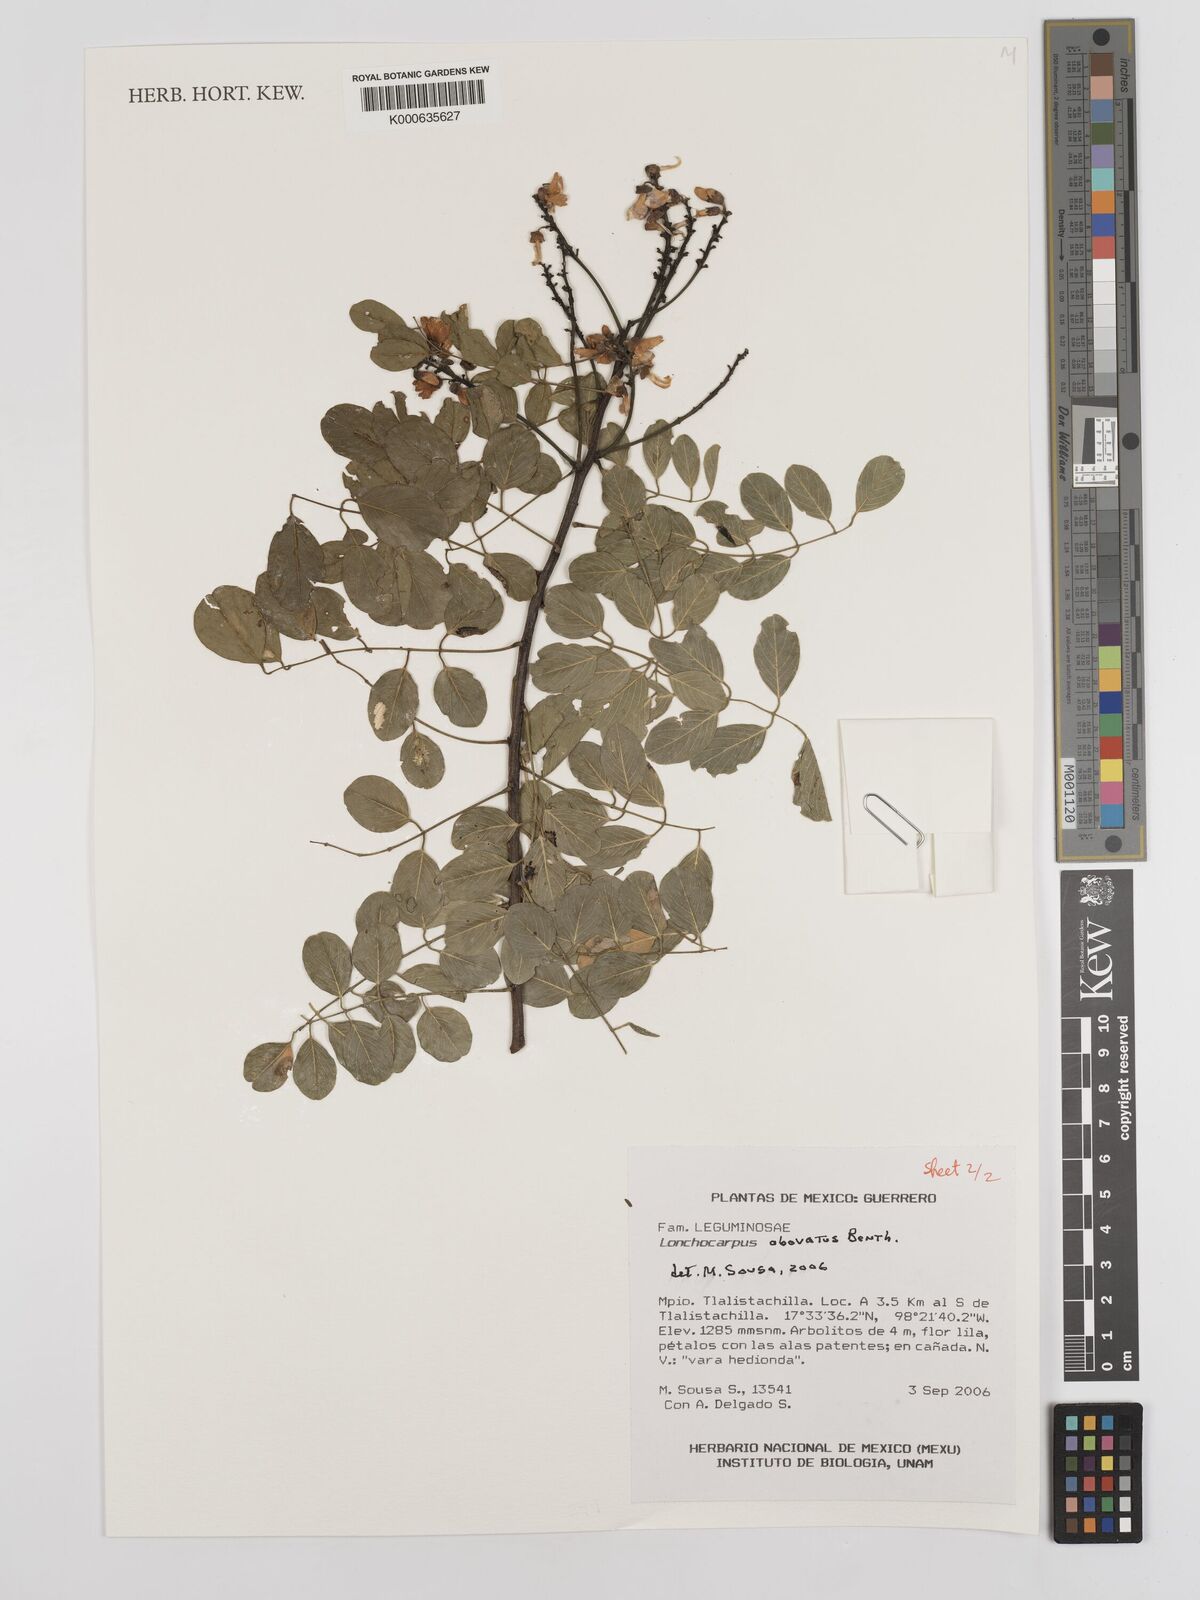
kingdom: Plantae
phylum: Tracheophyta
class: Magnoliopsida
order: Fabales
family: Fabaceae
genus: Lonchocarpus
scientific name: Lonchocarpus obovatus
